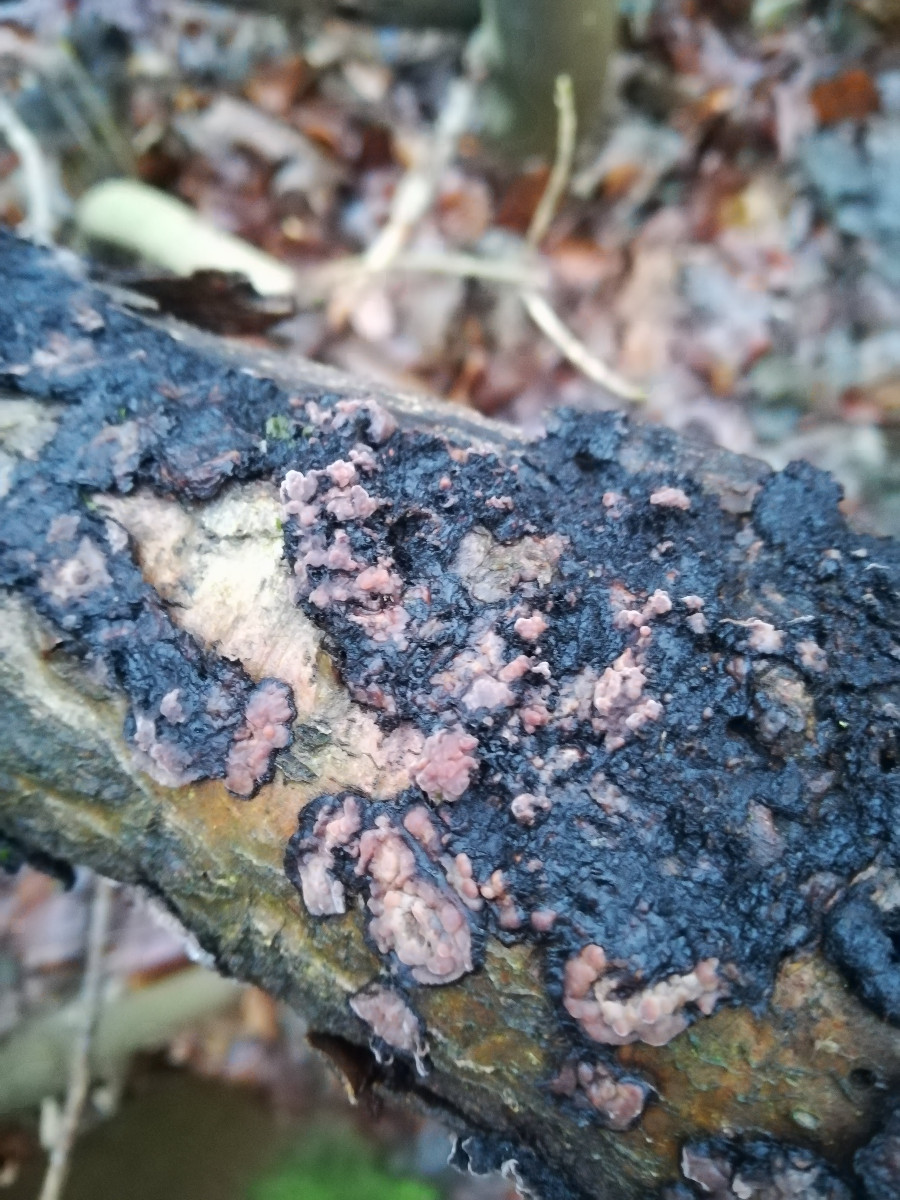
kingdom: Fungi
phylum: Basidiomycota
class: Agaricomycetes
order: Russulales
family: Peniophoraceae
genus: Peniophora
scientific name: Peniophora quercina
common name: ege-voksskind
